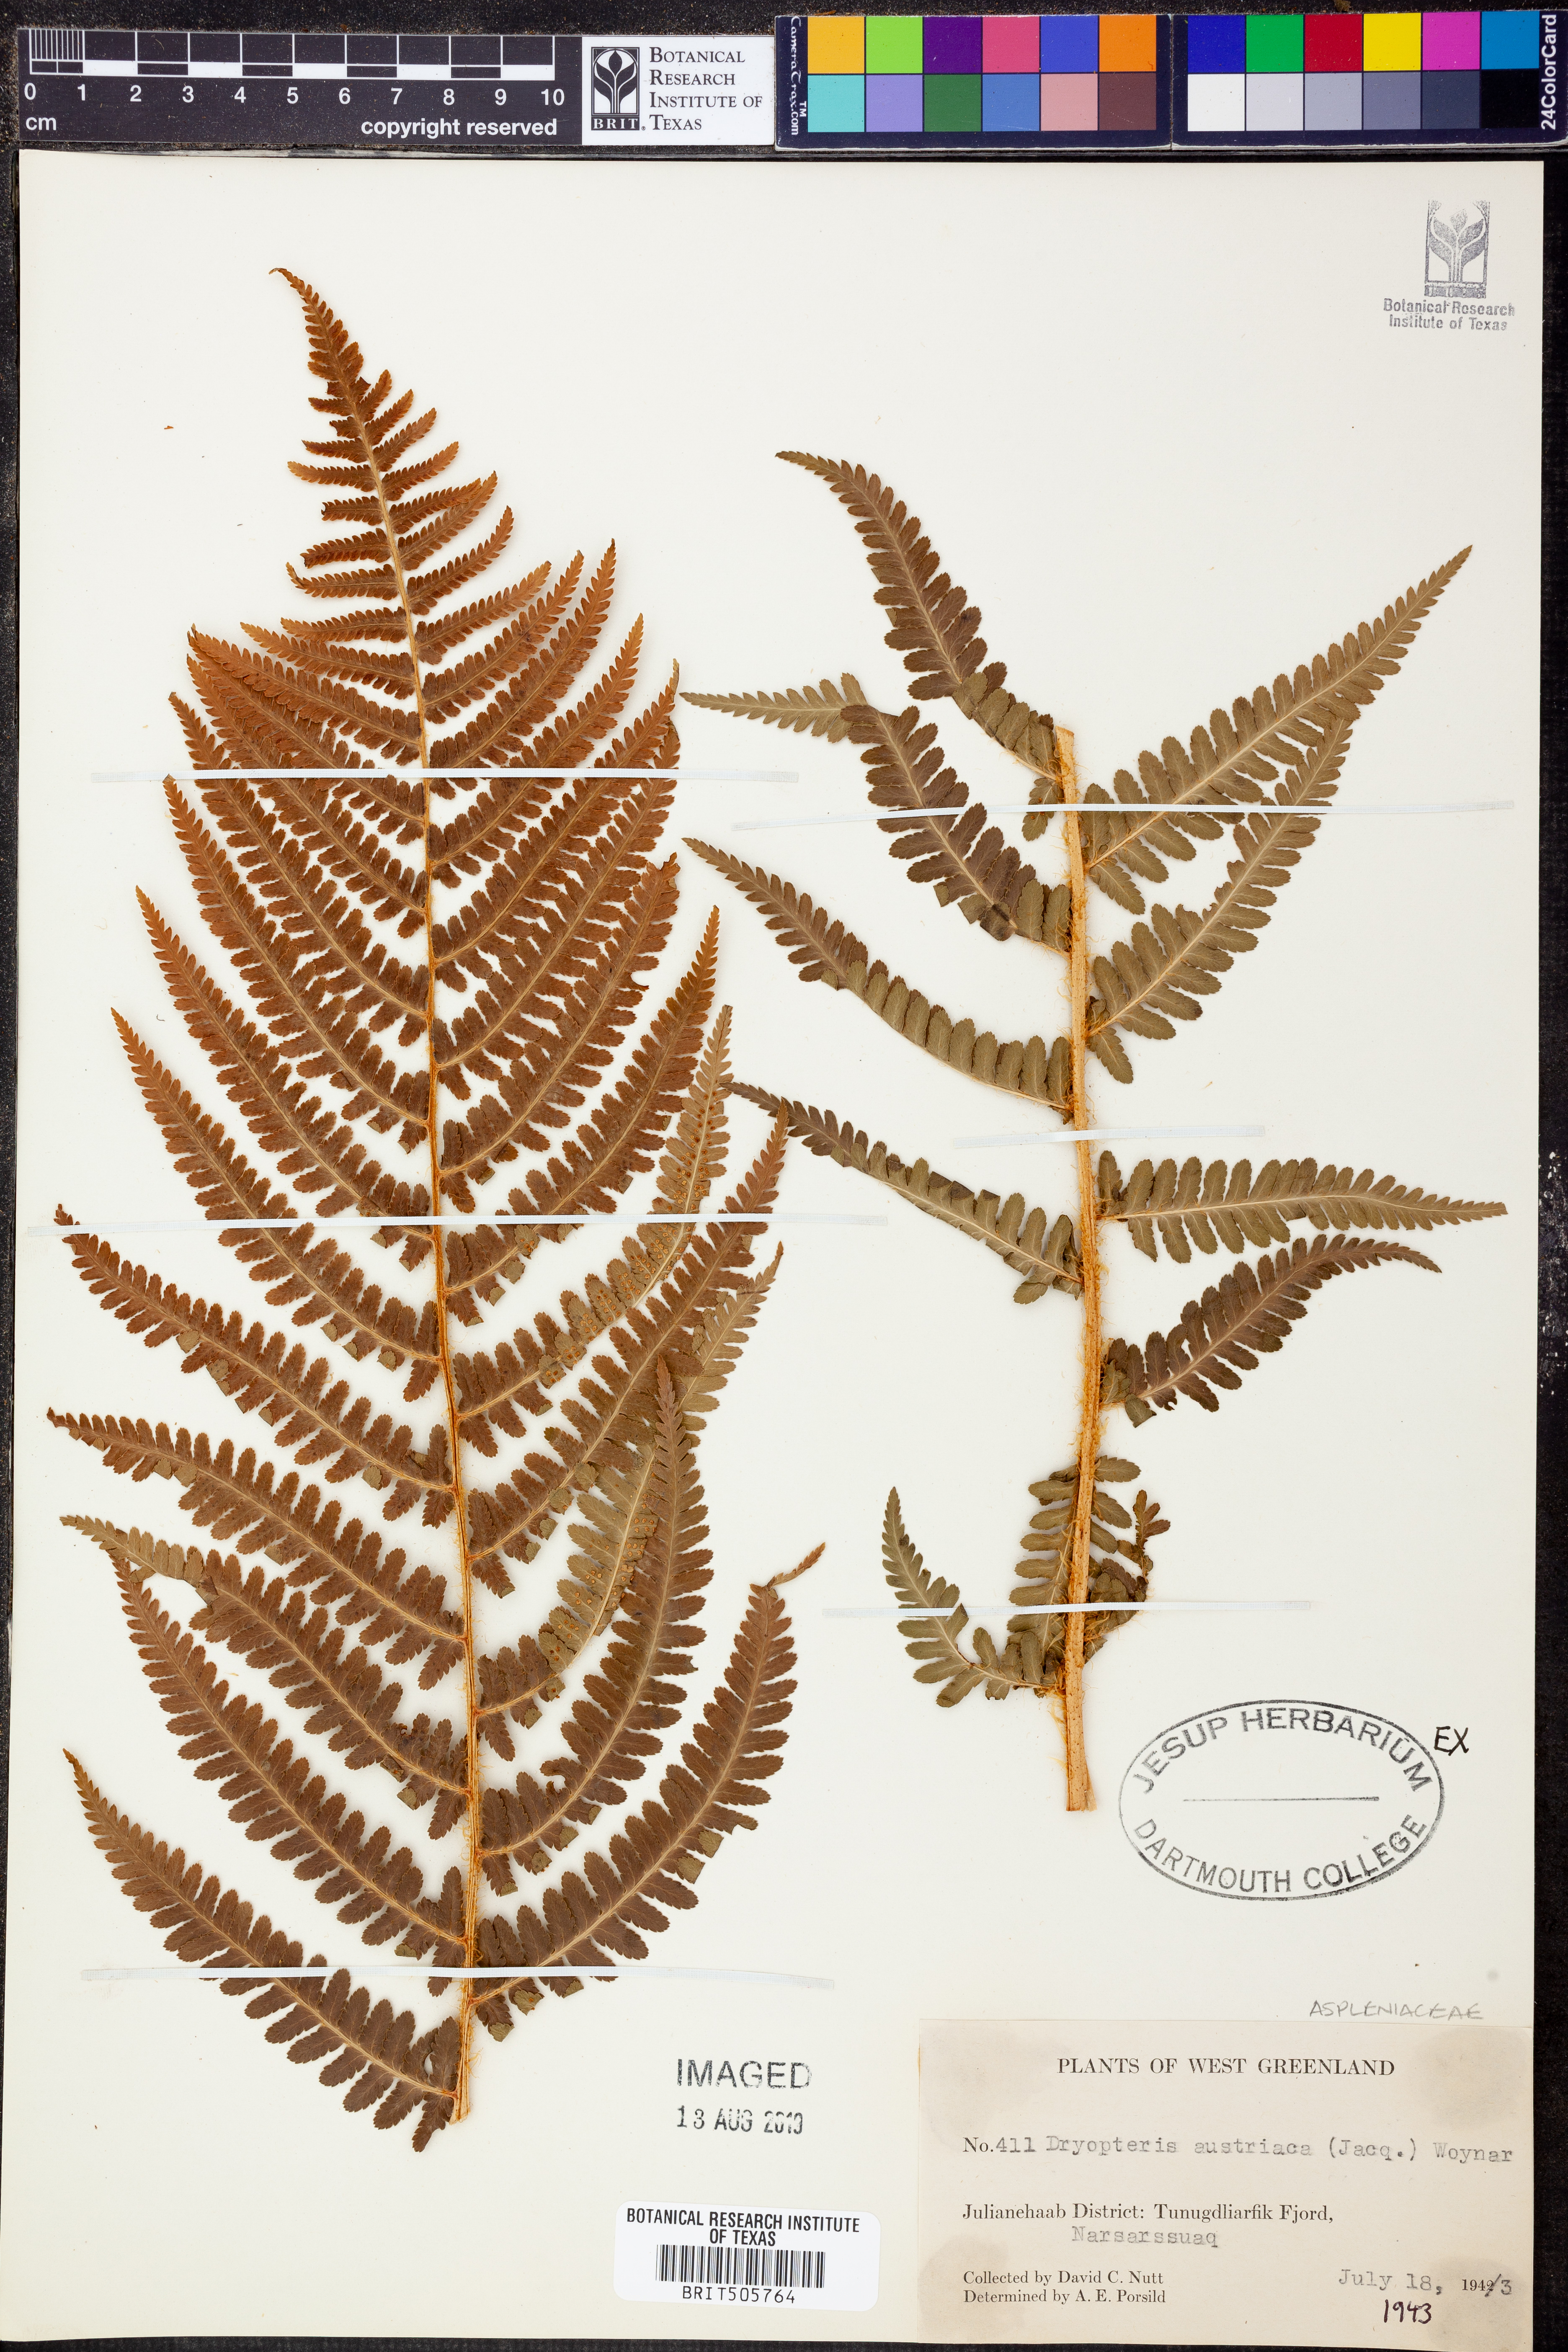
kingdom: Plantae
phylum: Tracheophyta
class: Polypodiopsida
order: Polypodiales
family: Dryopteridaceae
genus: Dryopteris
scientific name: Dryopteris dilatata
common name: Broad buckler-fern
